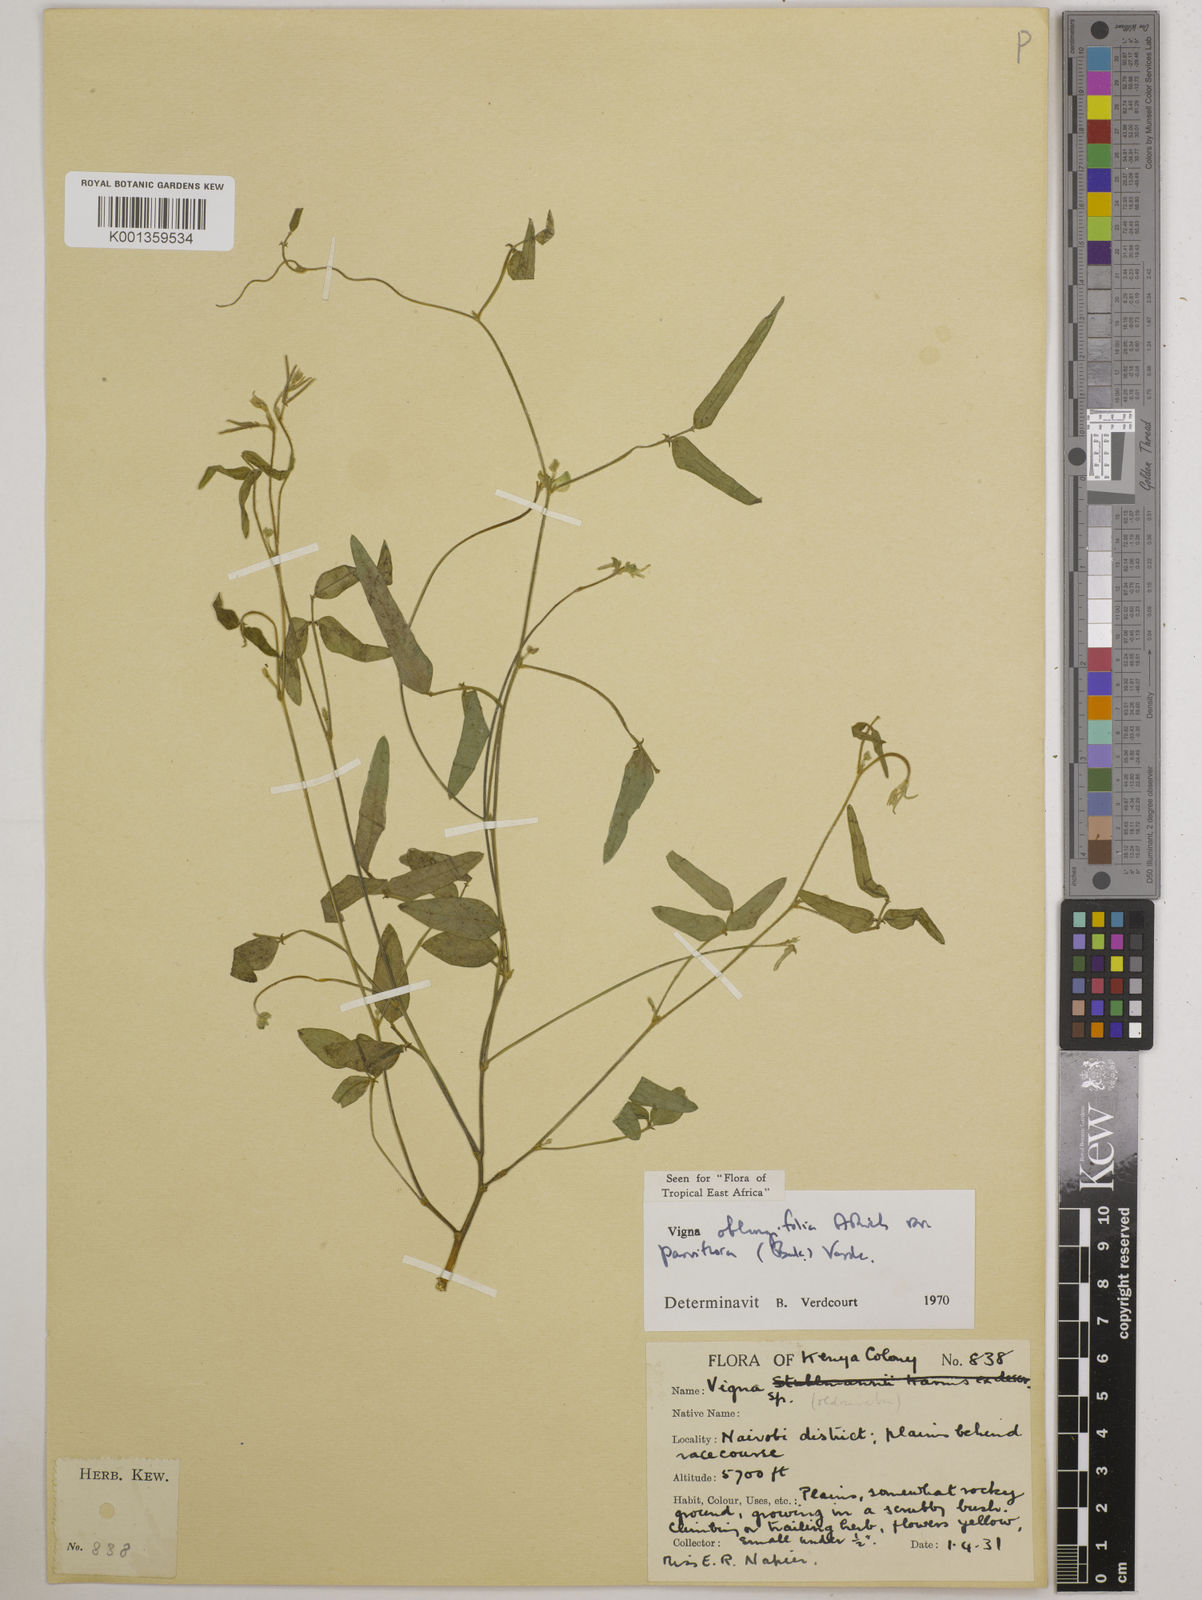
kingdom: Plantae
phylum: Tracheophyta
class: Magnoliopsida
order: Fabales
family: Fabaceae
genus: Vigna
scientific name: Vigna
